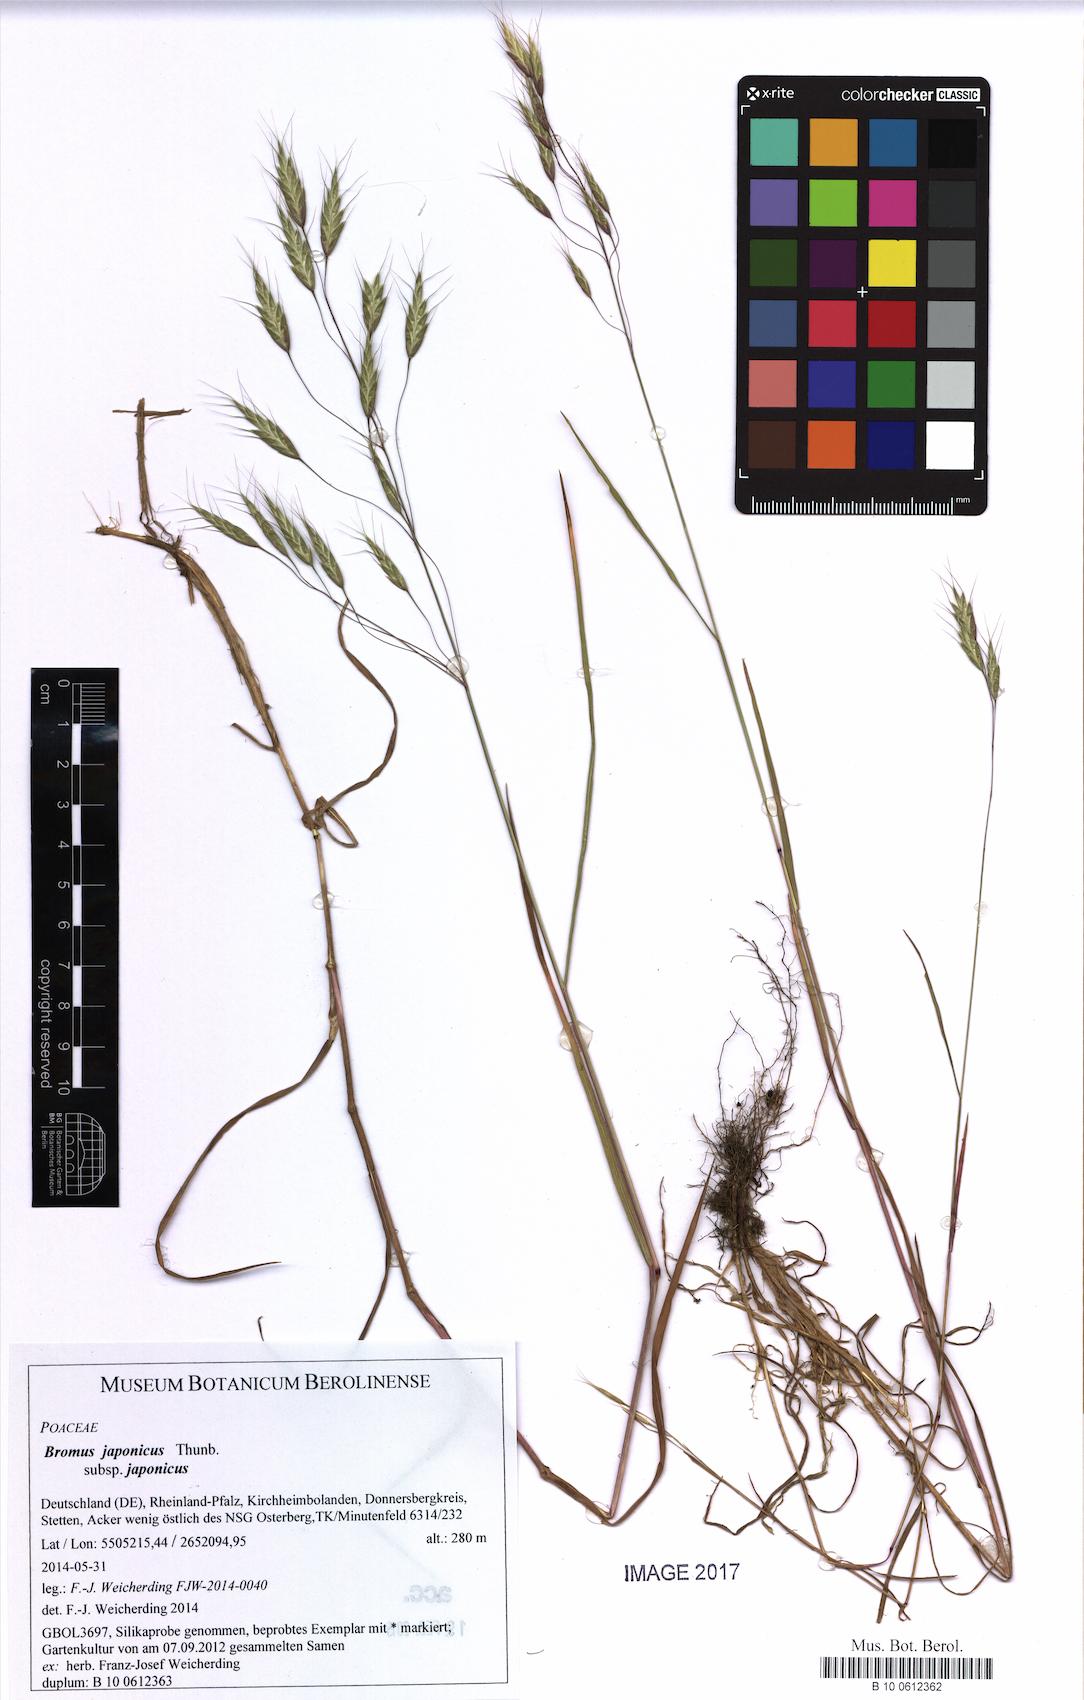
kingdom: Plantae
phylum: Tracheophyta
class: Liliopsida
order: Poales
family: Poaceae
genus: Bromus
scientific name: Bromus japonicus
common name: Japanese brome
